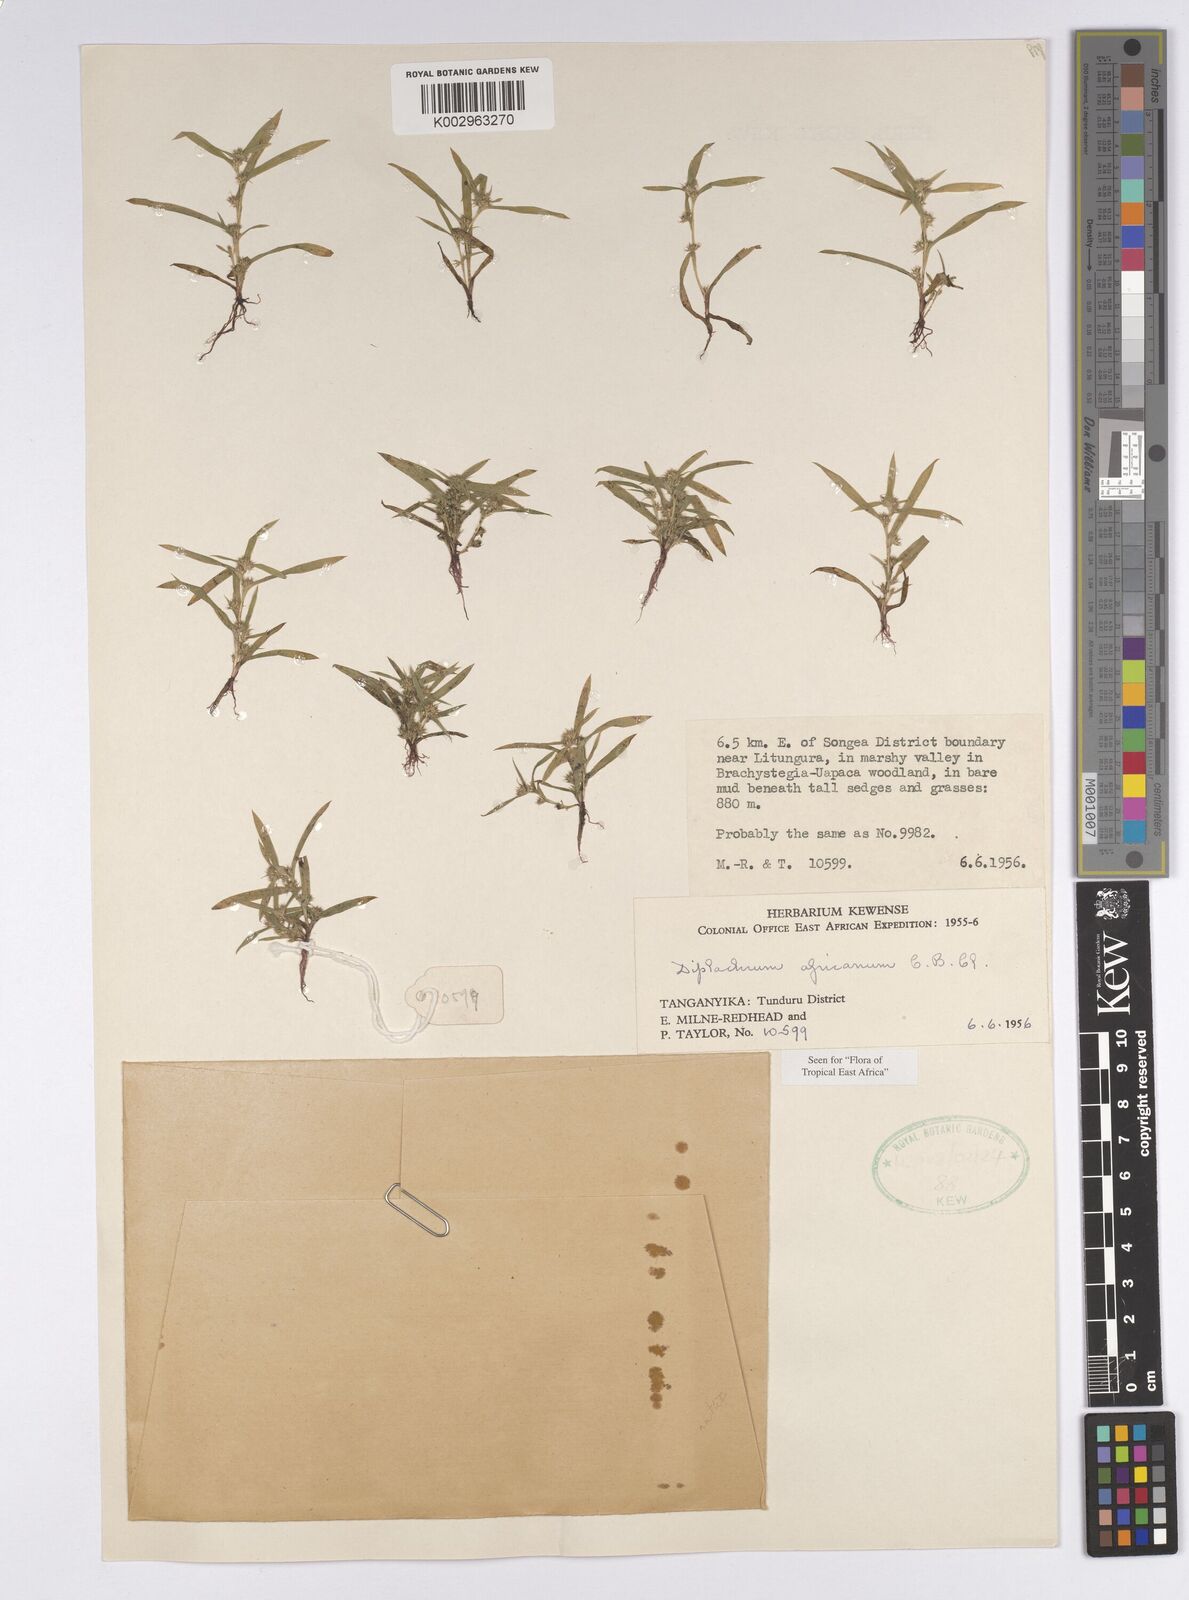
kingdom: Plantae
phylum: Tracheophyta
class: Liliopsida
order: Poales
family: Cyperaceae
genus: Diplacrum
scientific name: Diplacrum africanum
